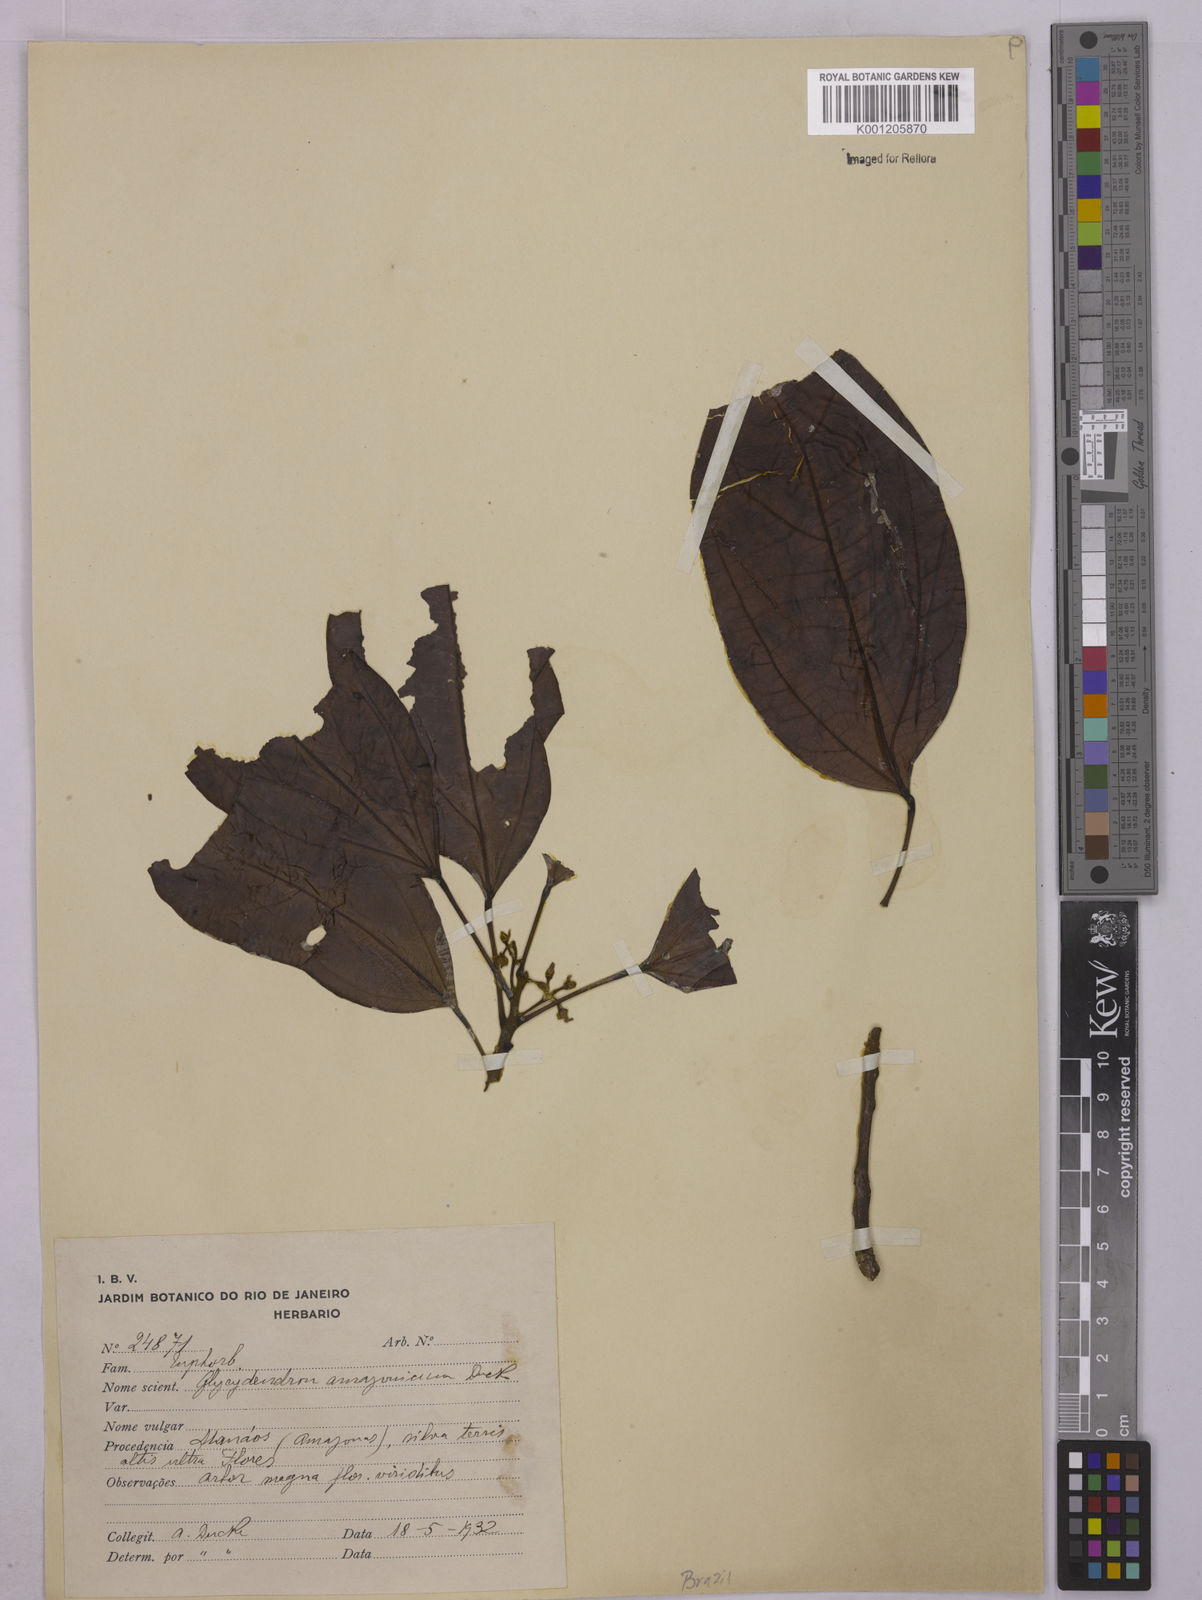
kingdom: Plantae
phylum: Tracheophyta
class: Magnoliopsida
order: Malpighiales
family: Euphorbiaceae
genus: Glycydendron
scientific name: Glycydendron amazonicum
